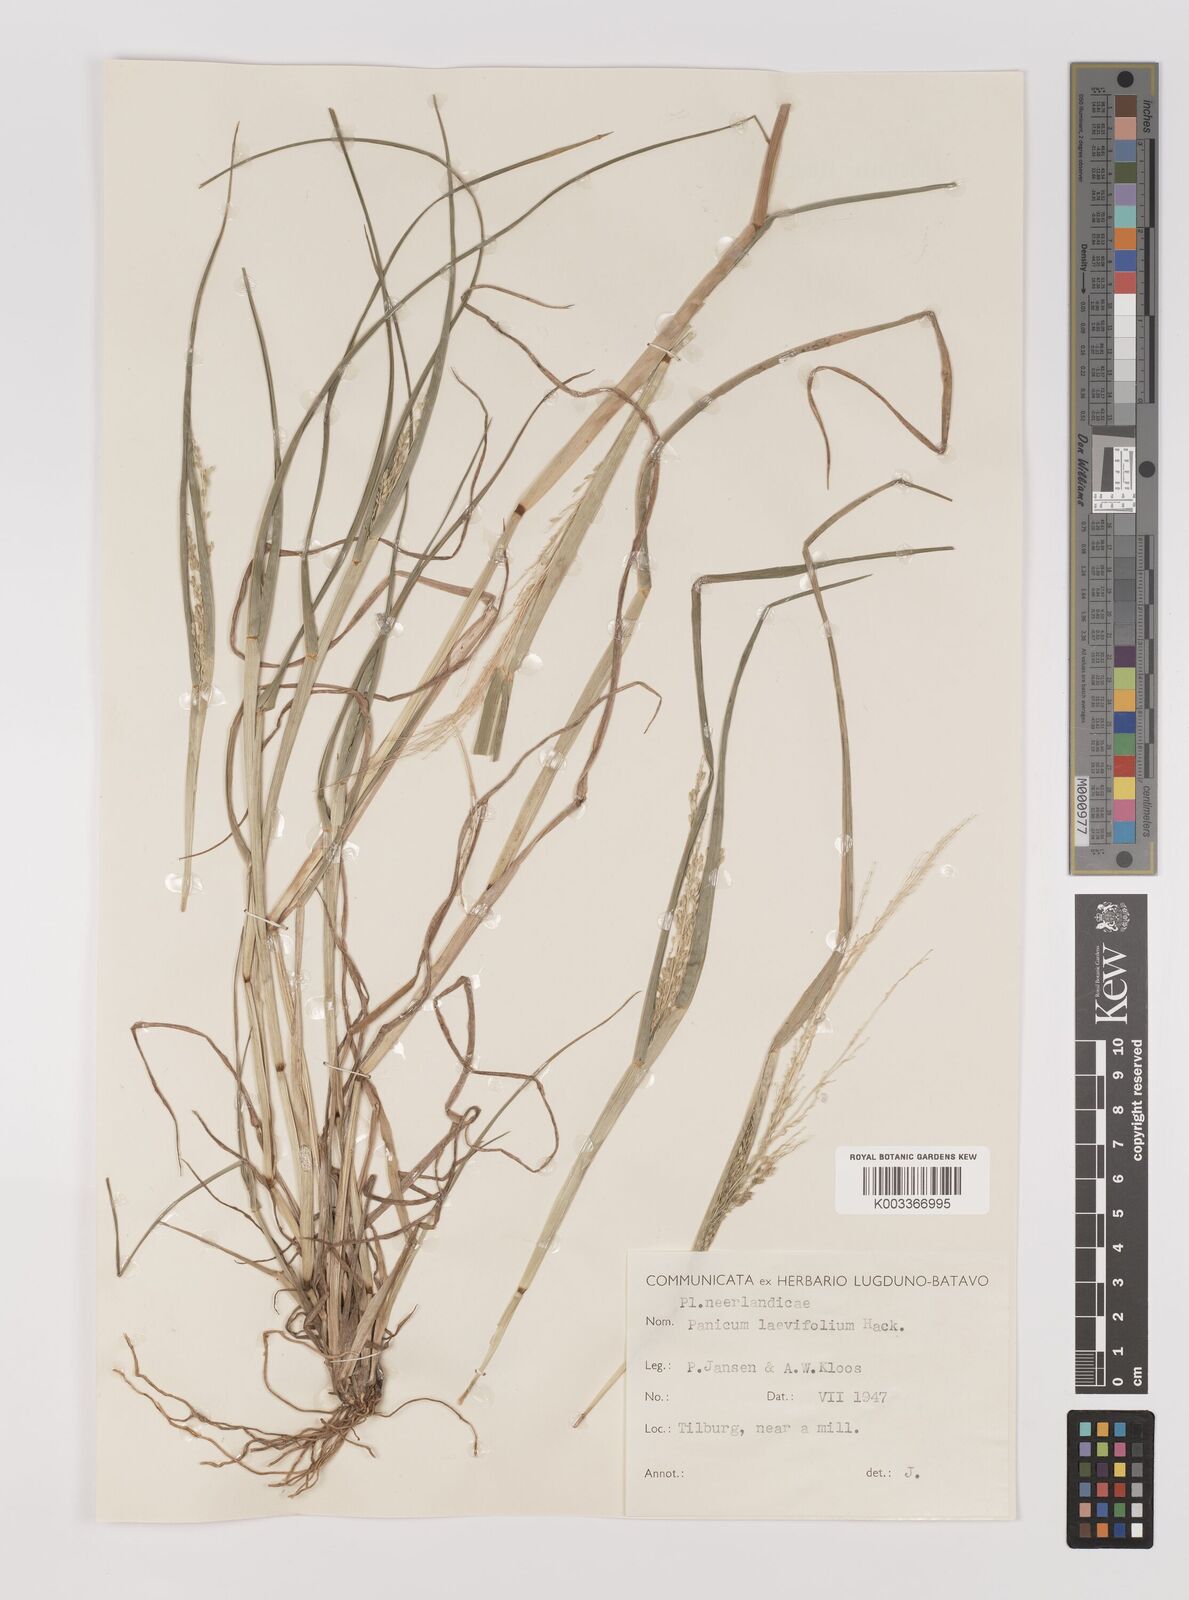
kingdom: Plantae
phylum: Tracheophyta
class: Liliopsida
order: Poales
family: Poaceae
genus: Panicum
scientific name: Panicum schinzii
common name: Sweet grass
